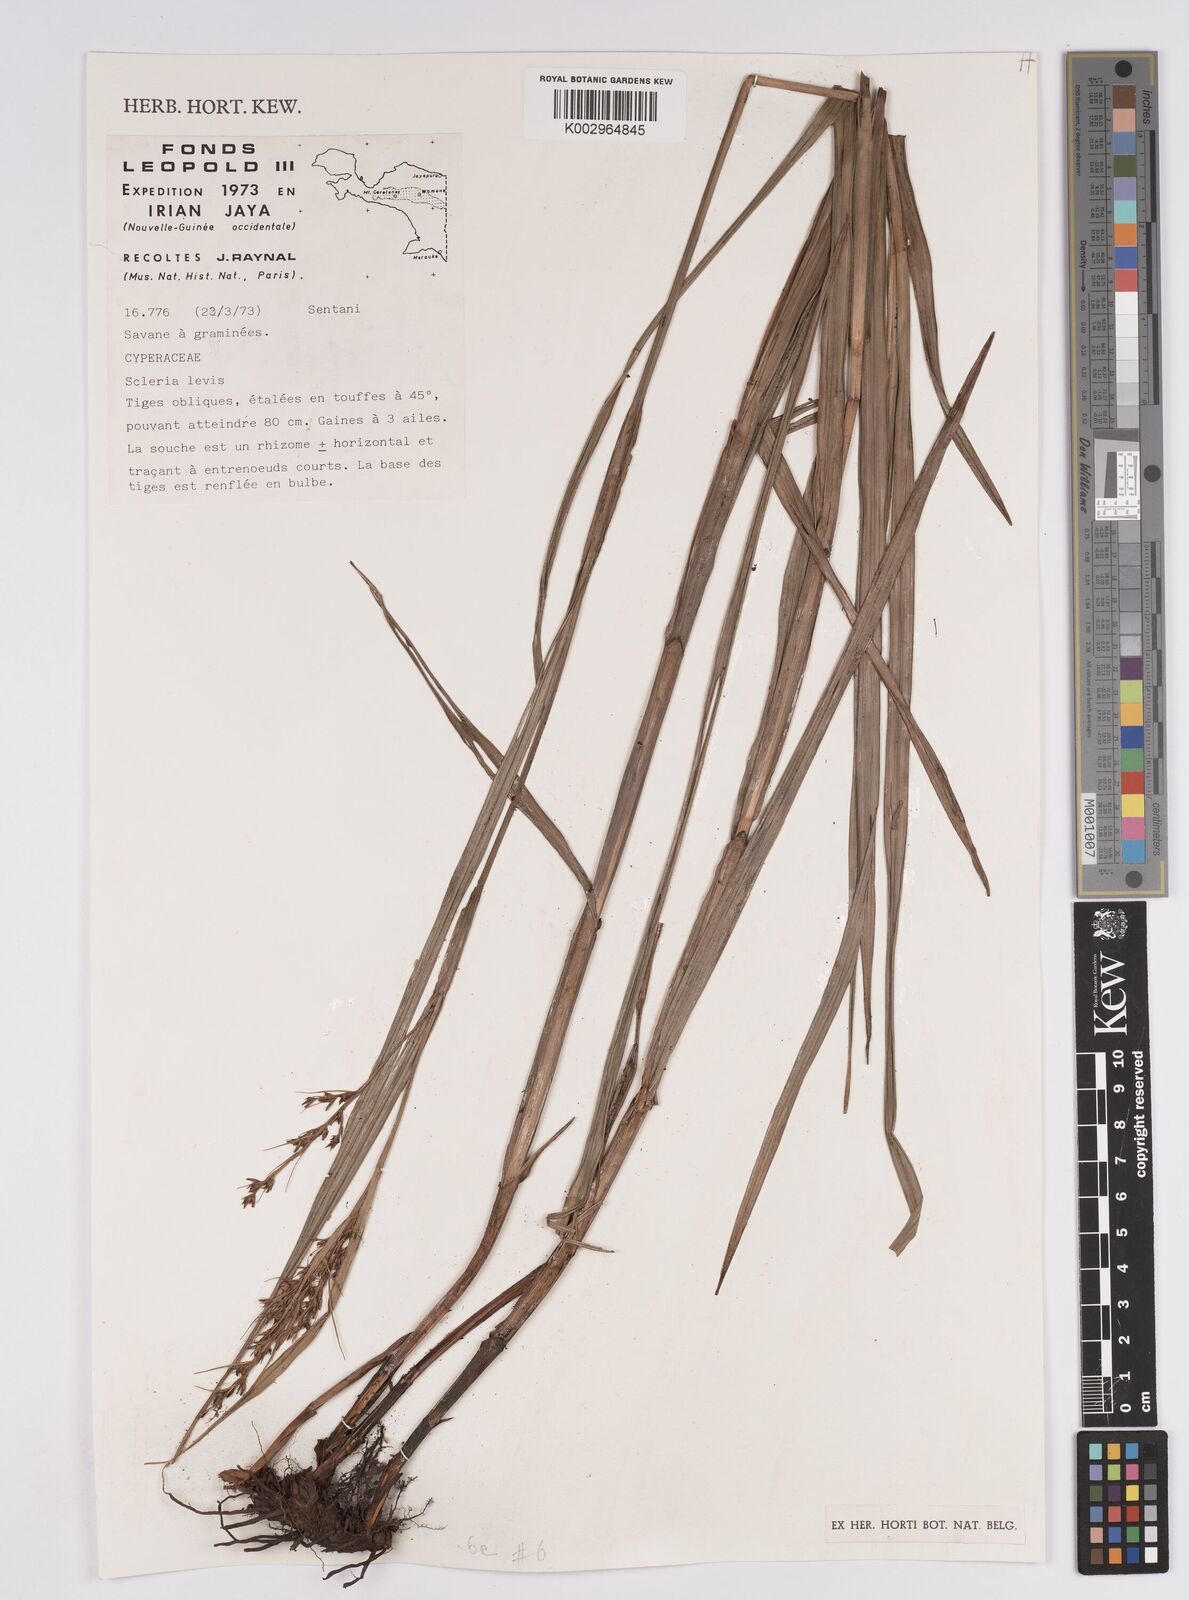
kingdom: Plantae
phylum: Tracheophyta
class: Liliopsida
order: Poales
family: Cyperaceae
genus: Scleria
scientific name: Scleria
